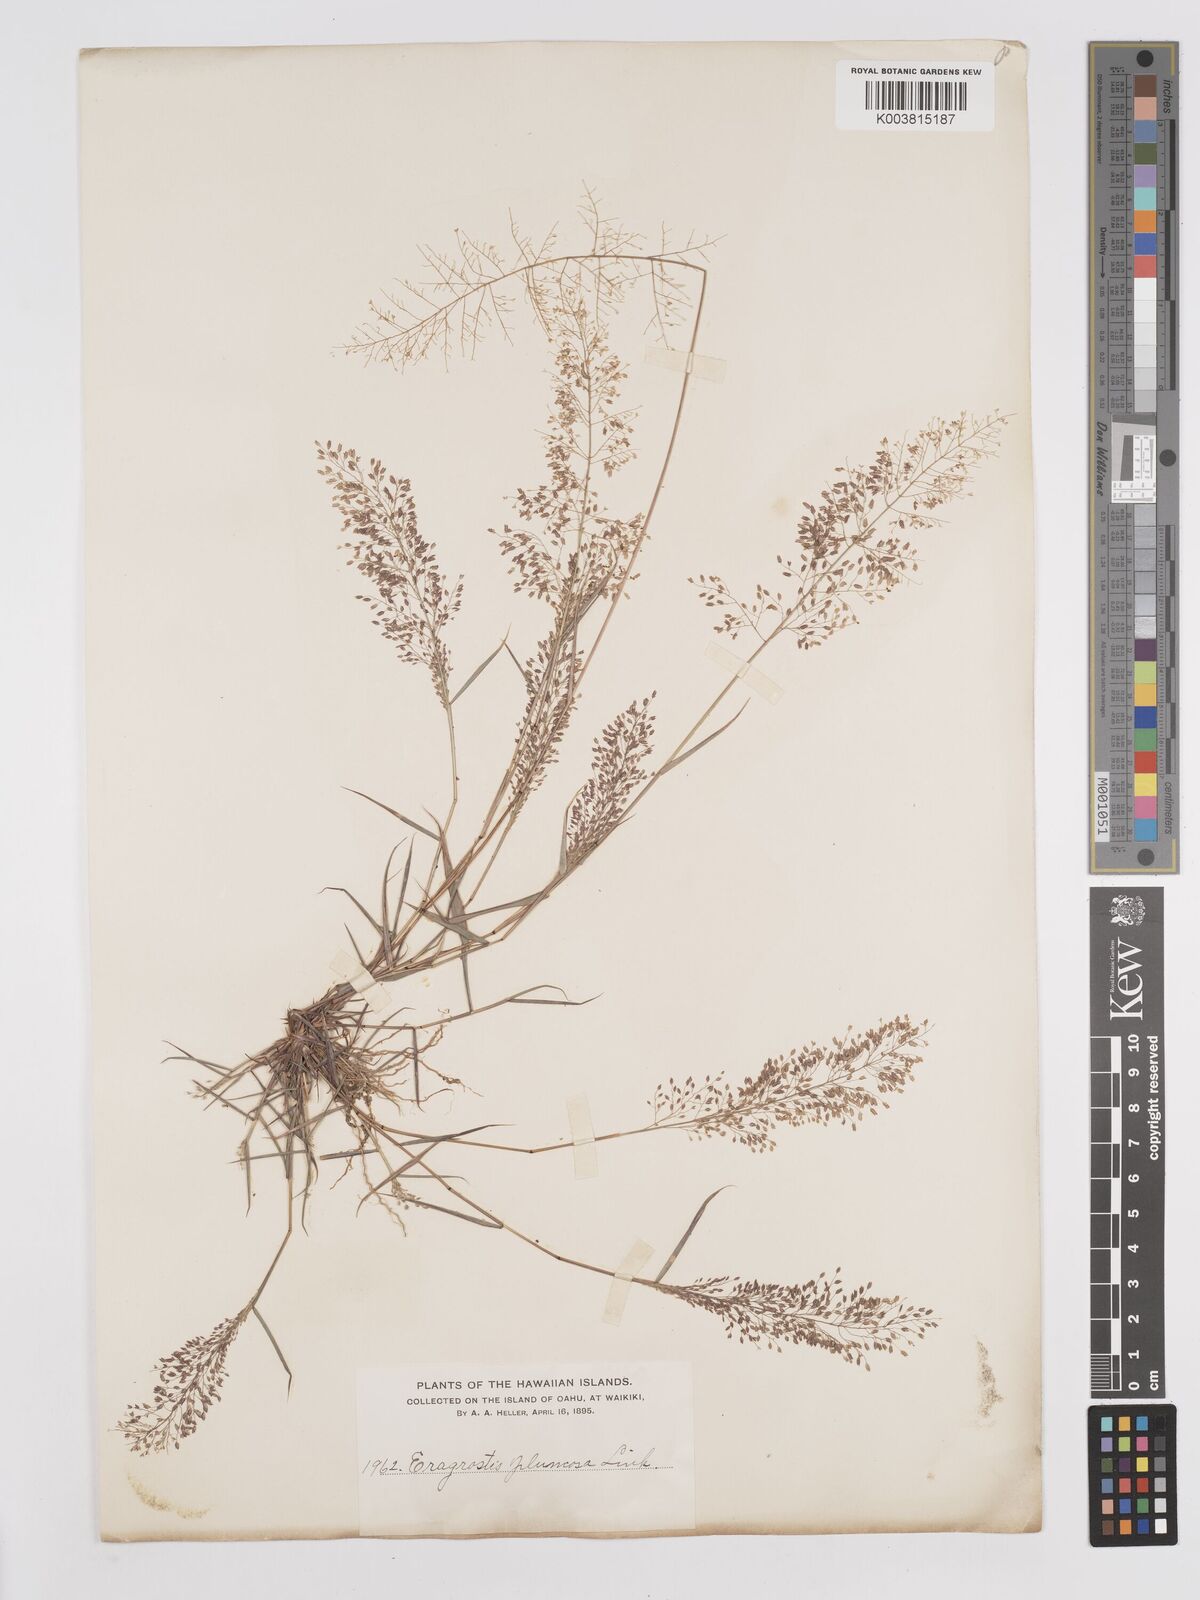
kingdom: Plantae
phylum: Tracheophyta
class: Liliopsida
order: Poales
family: Poaceae
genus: Eragrostis
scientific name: Eragrostis tenella
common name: Japanese lovegrass
